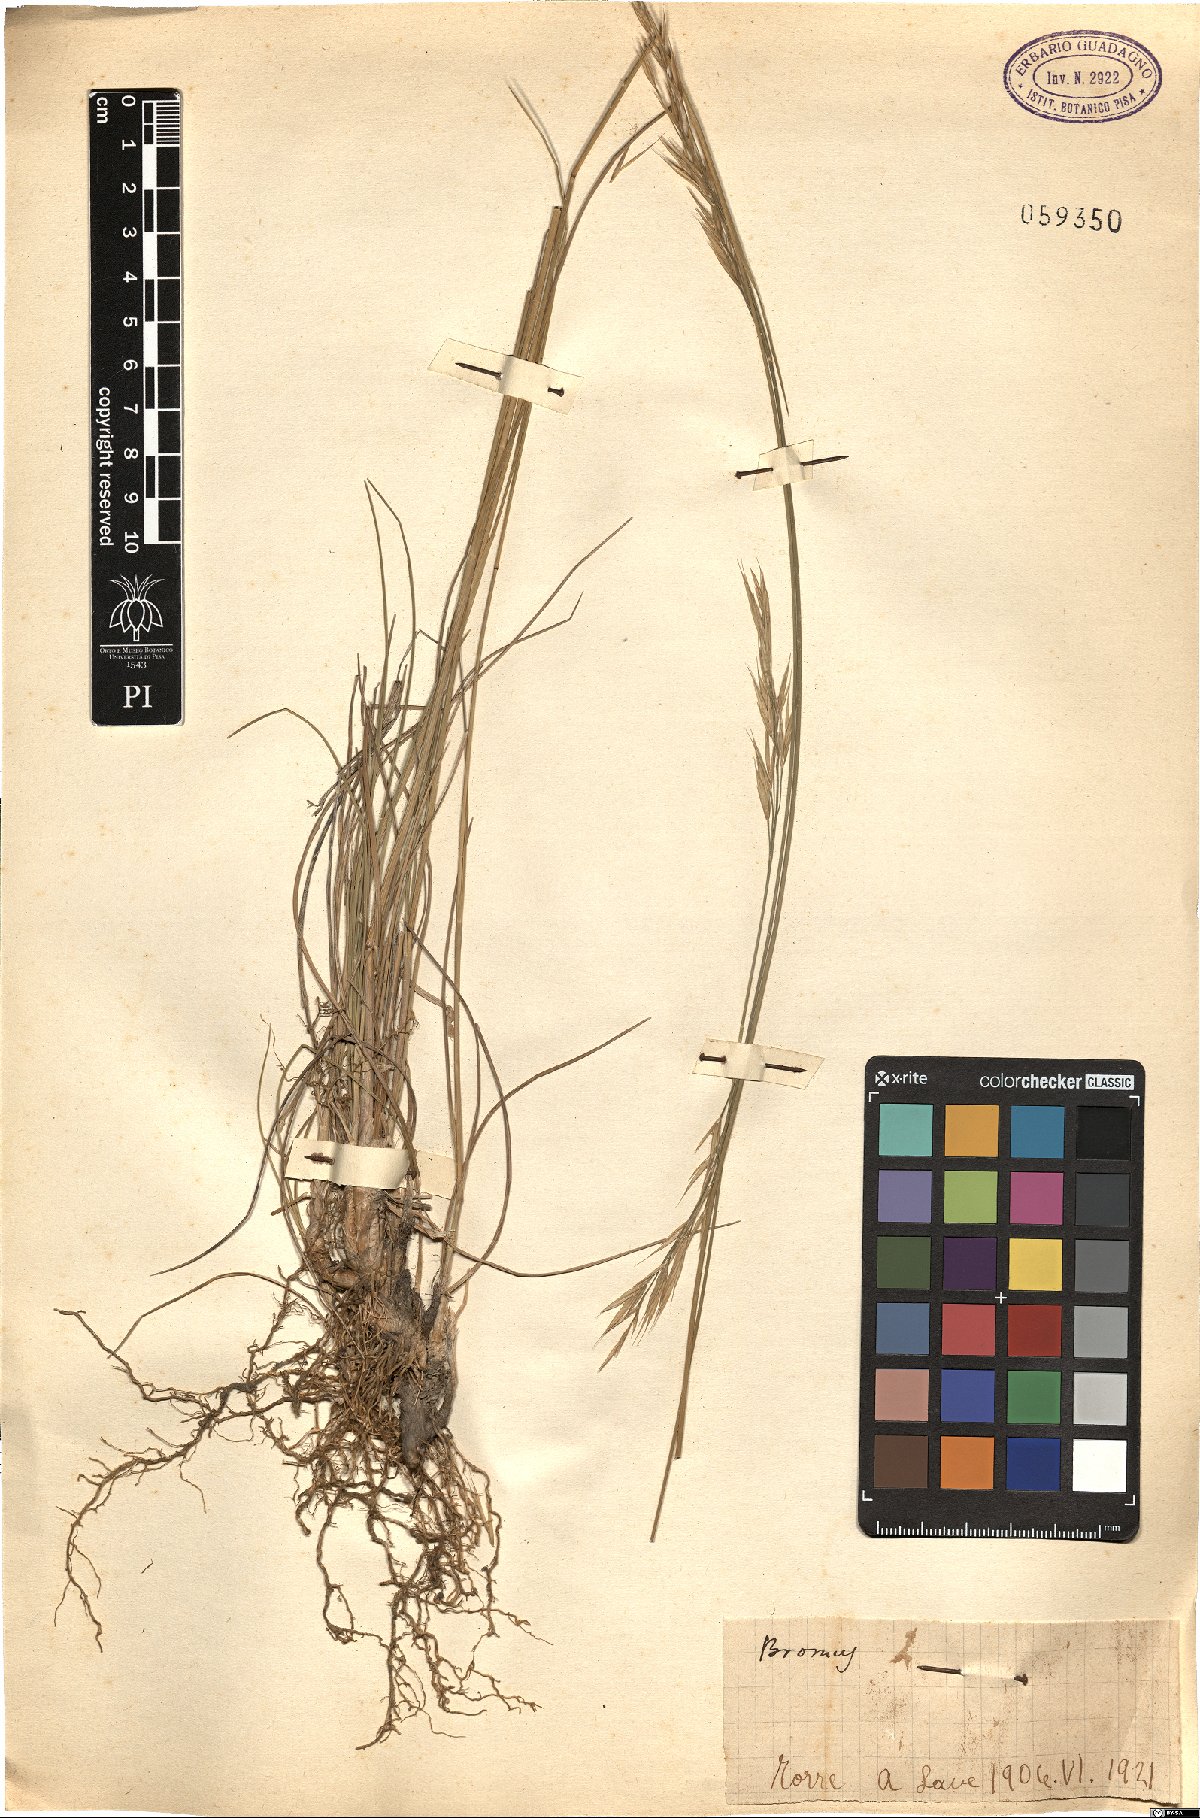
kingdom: Plantae
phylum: Tracheophyta
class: Liliopsida
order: Poales
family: Poaceae
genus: Bromus
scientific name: Bromus
